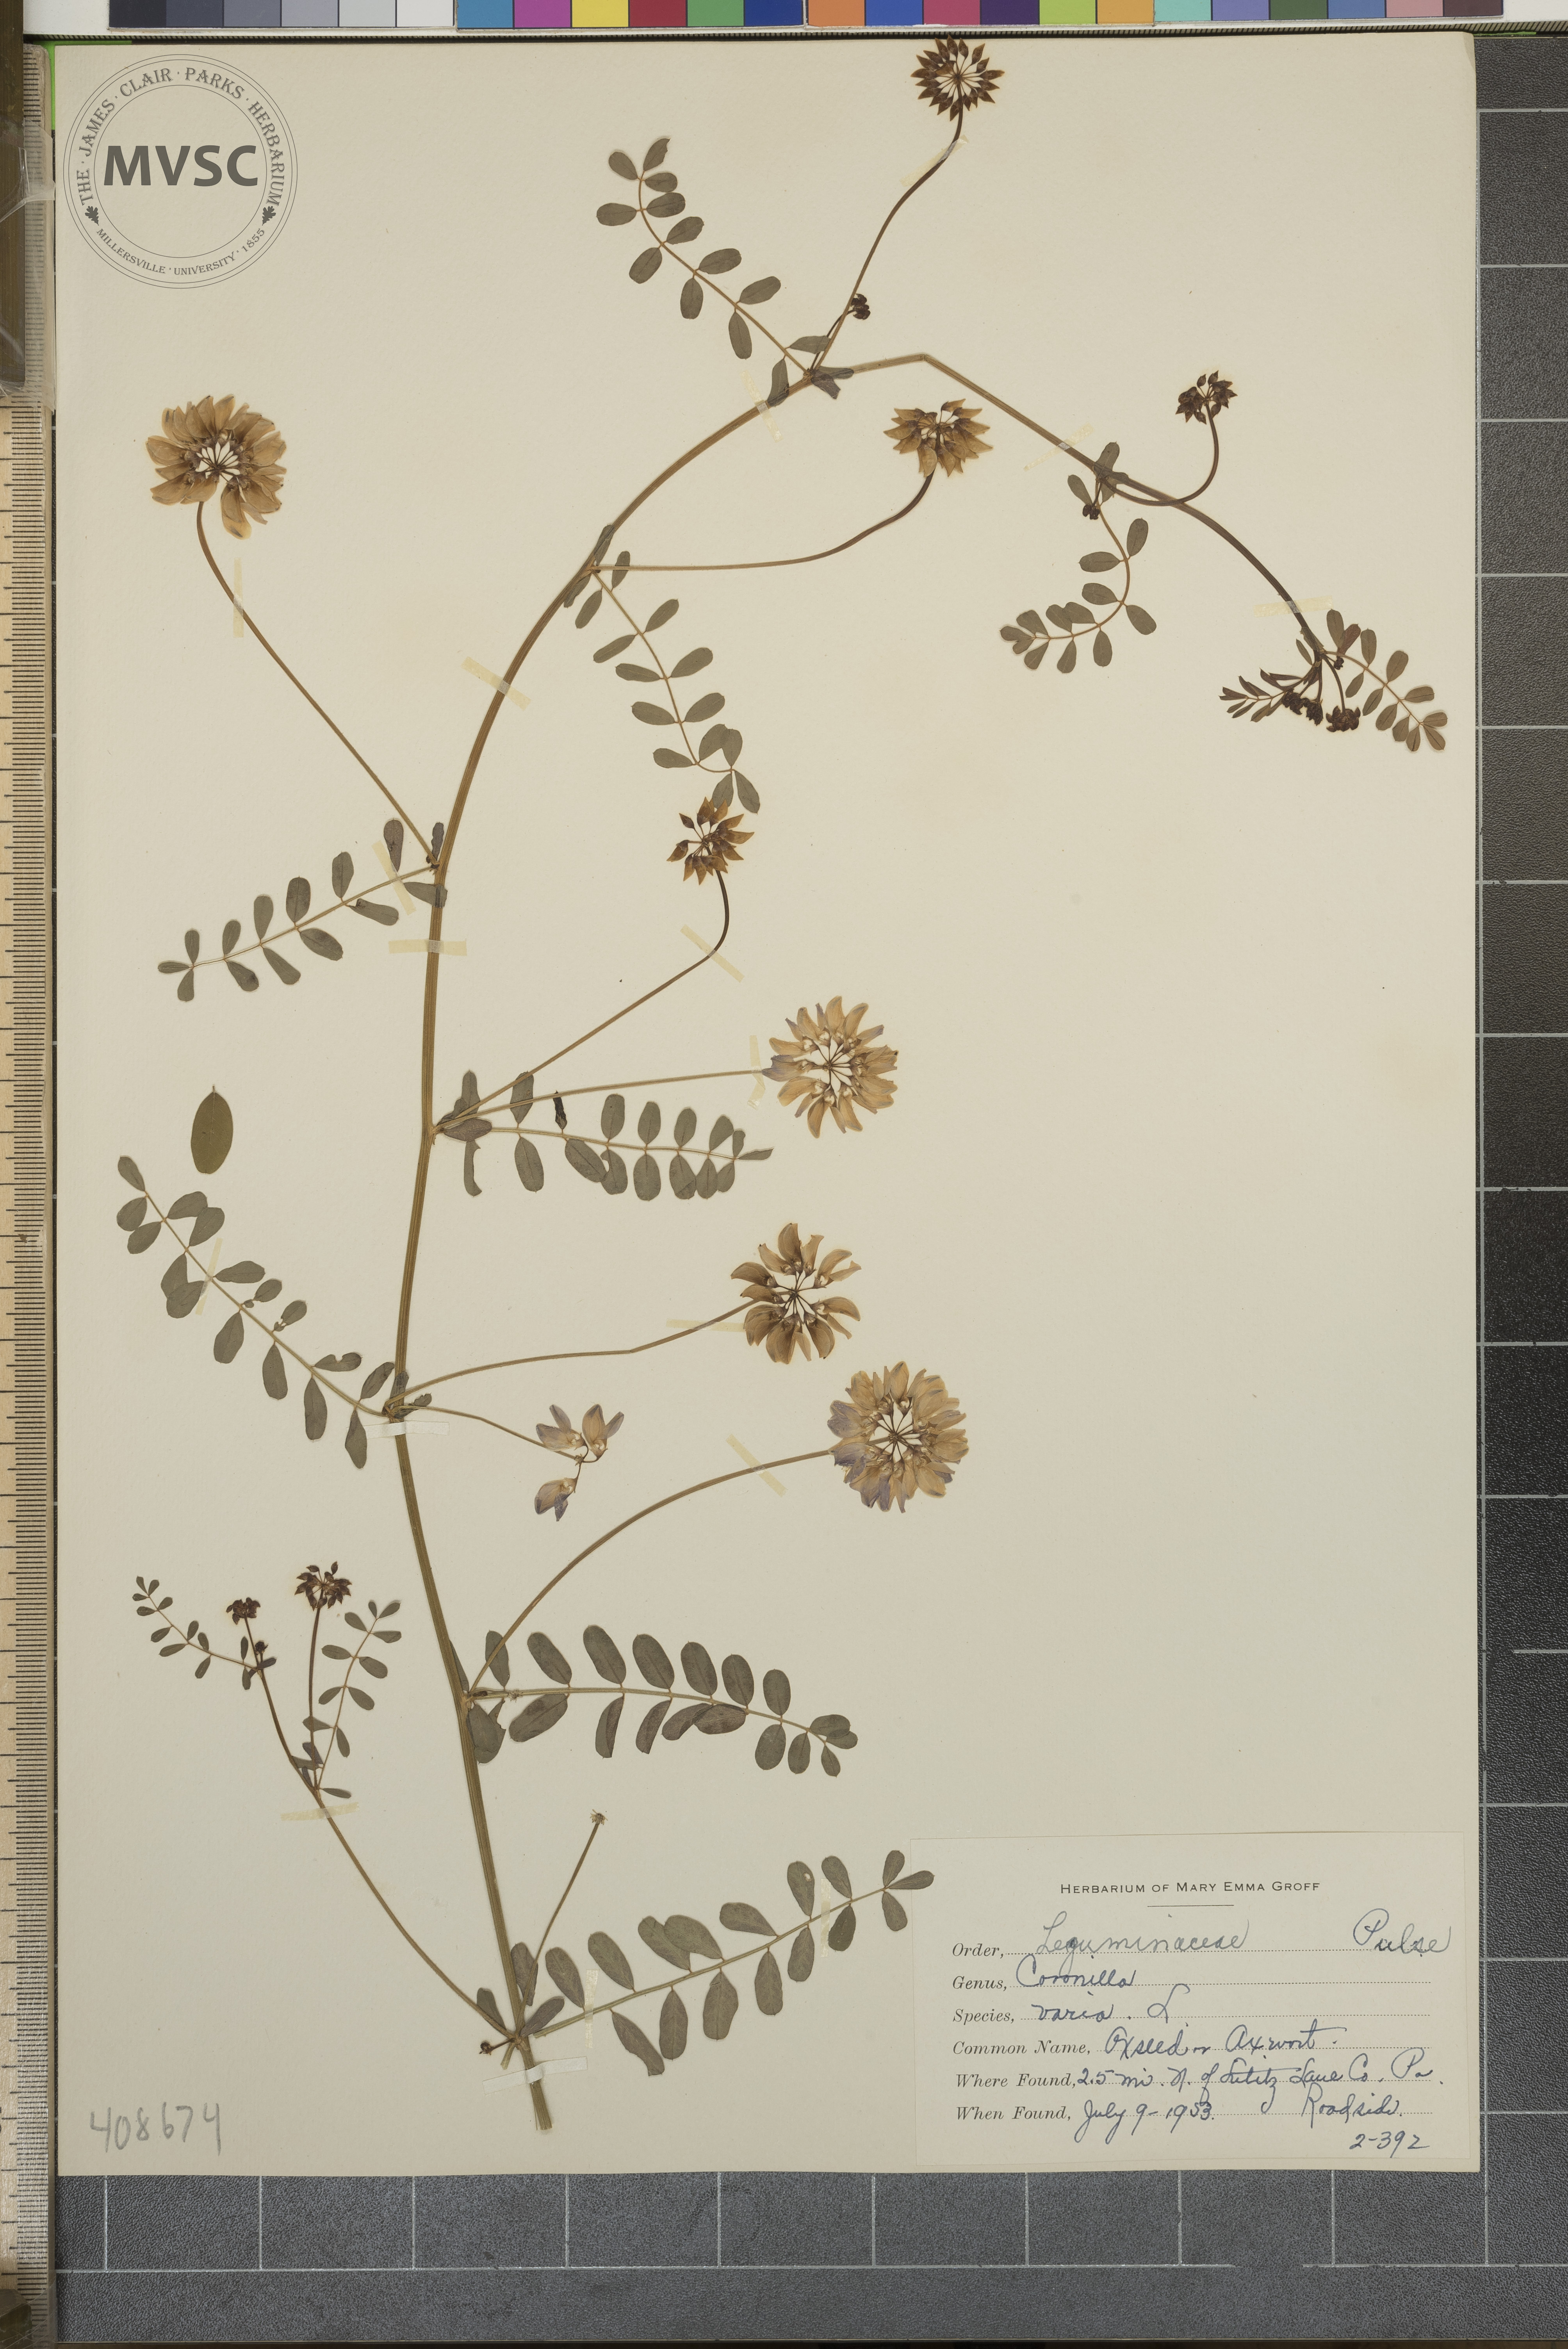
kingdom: Plantae
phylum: Tracheophyta
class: Magnoliopsida
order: Fabales
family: Fabaceae
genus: Coronilla
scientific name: Coronilla varia
